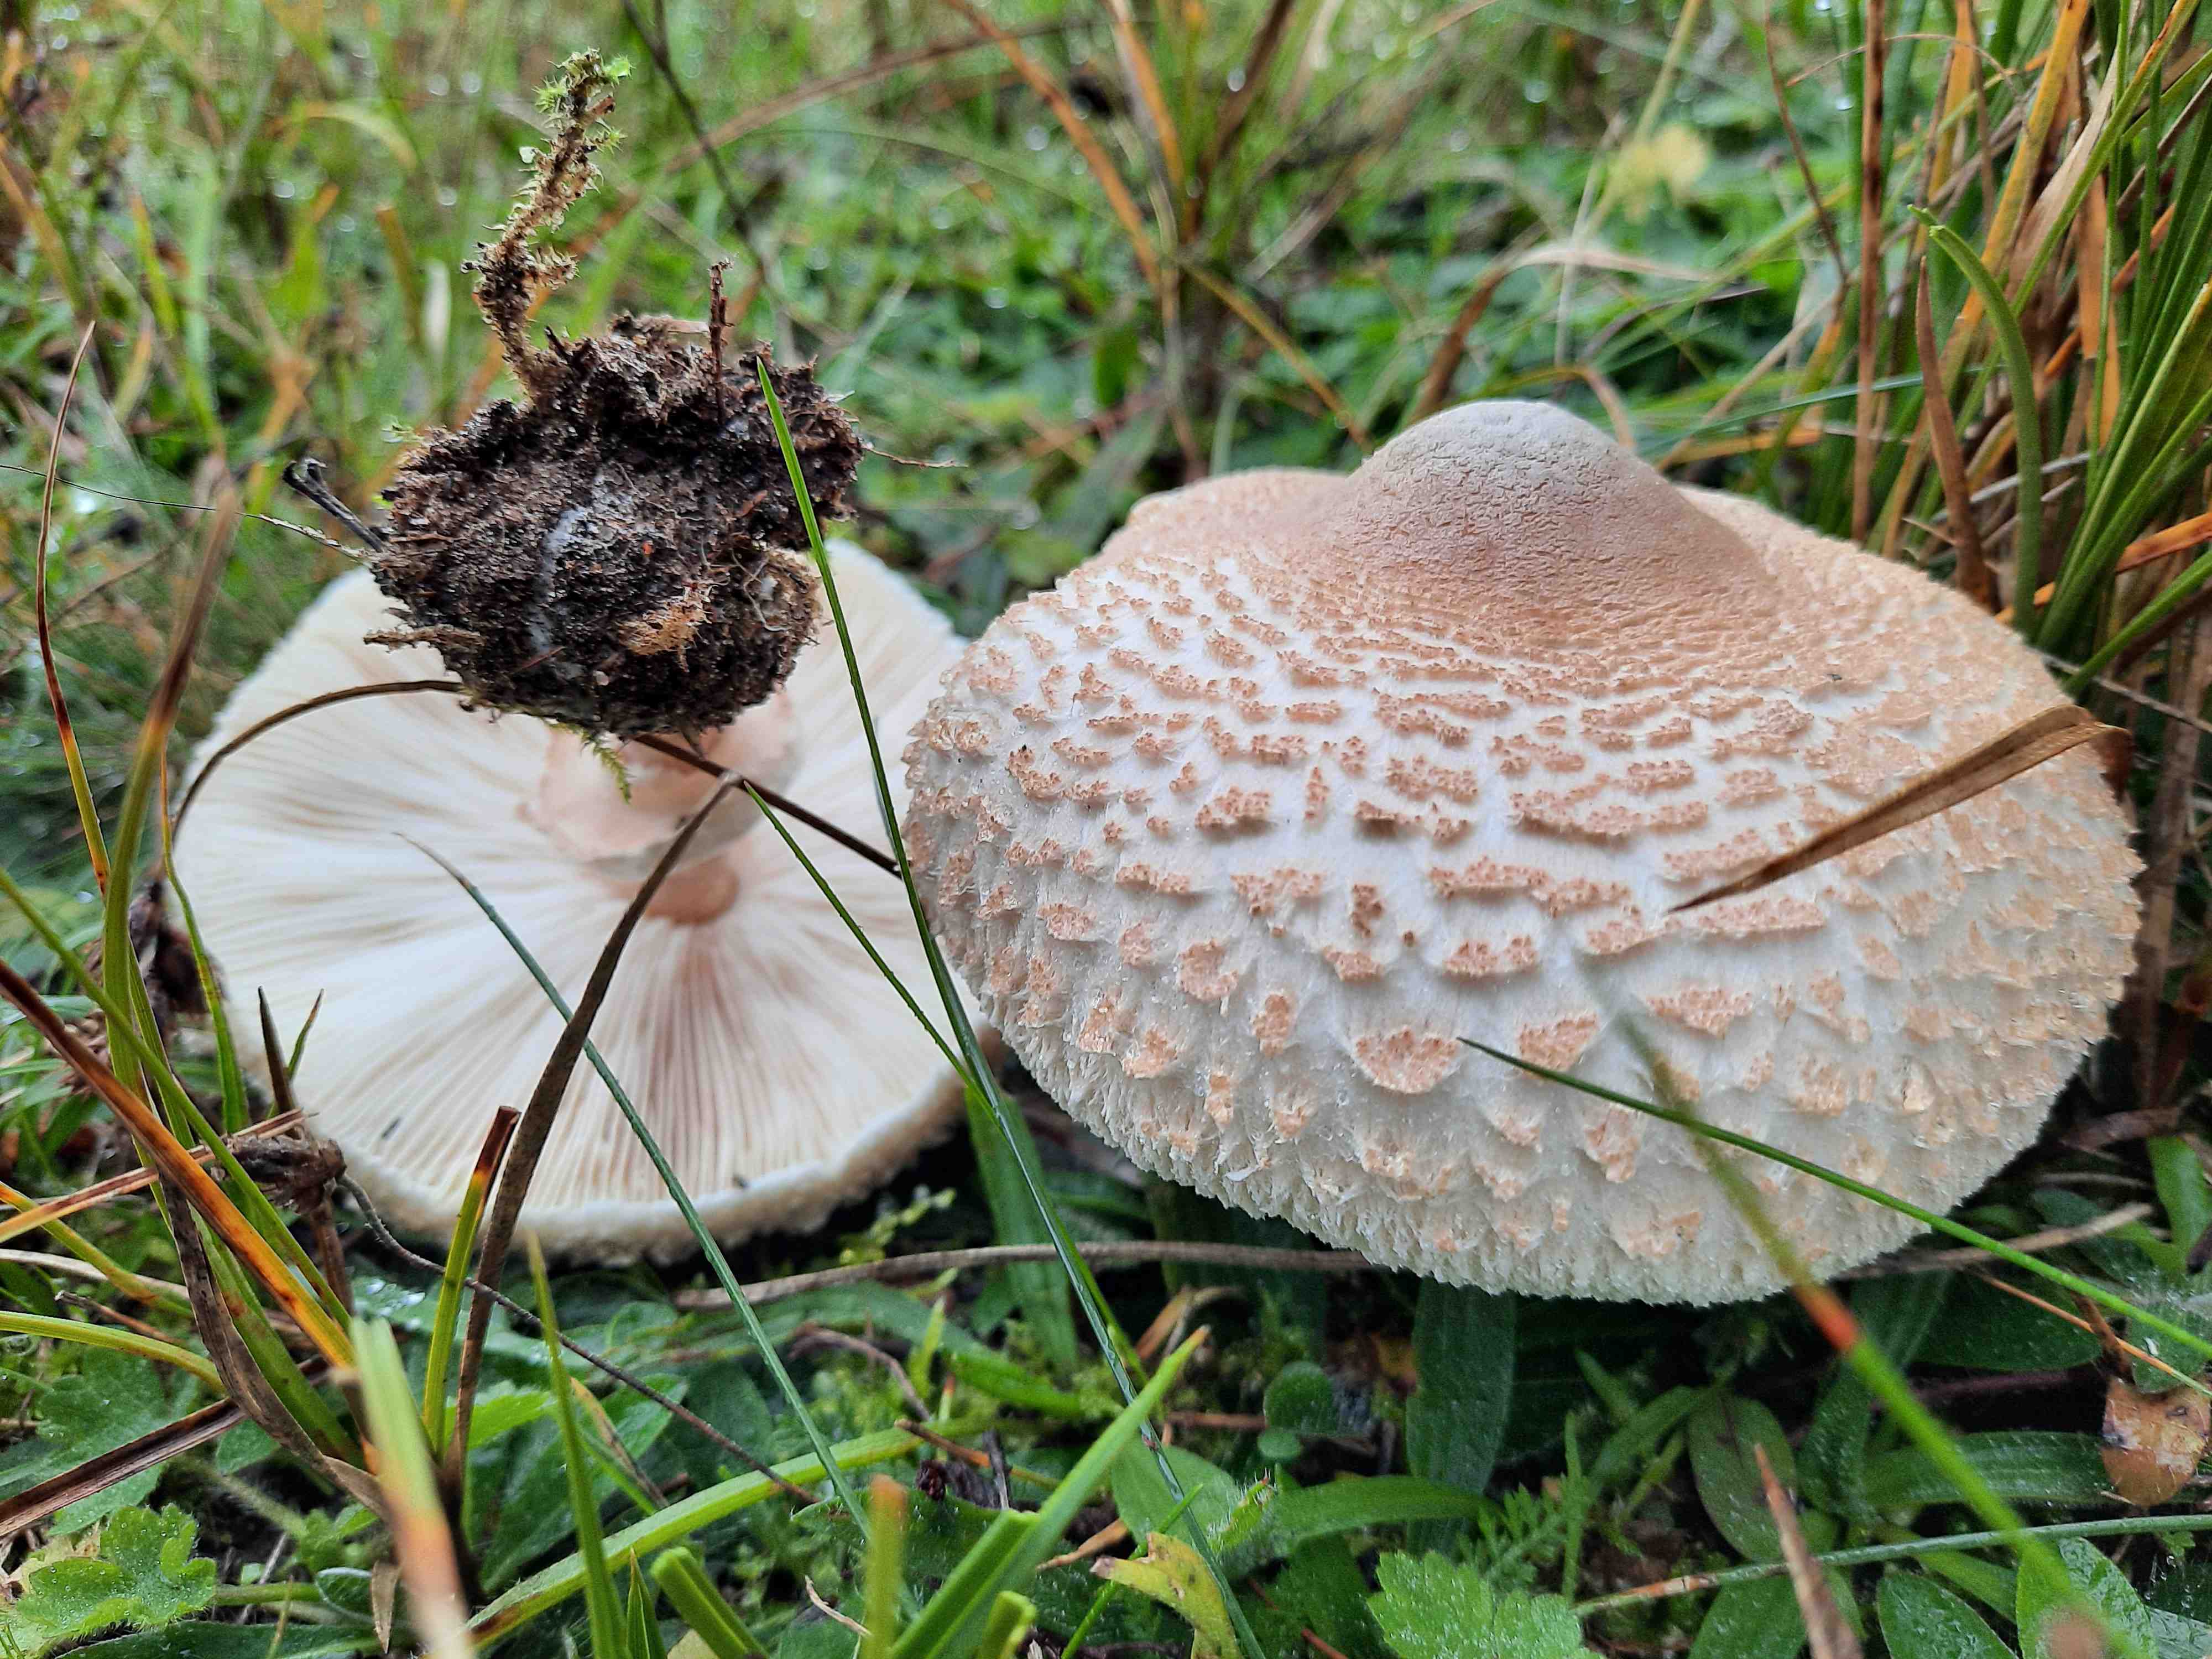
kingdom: Fungi
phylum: Basidiomycota
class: Agaricomycetes
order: Agaricales
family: Agaricaceae
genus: Macrolepiota
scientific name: Macrolepiota mastoidea
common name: puklet kæmpeparasolhat
